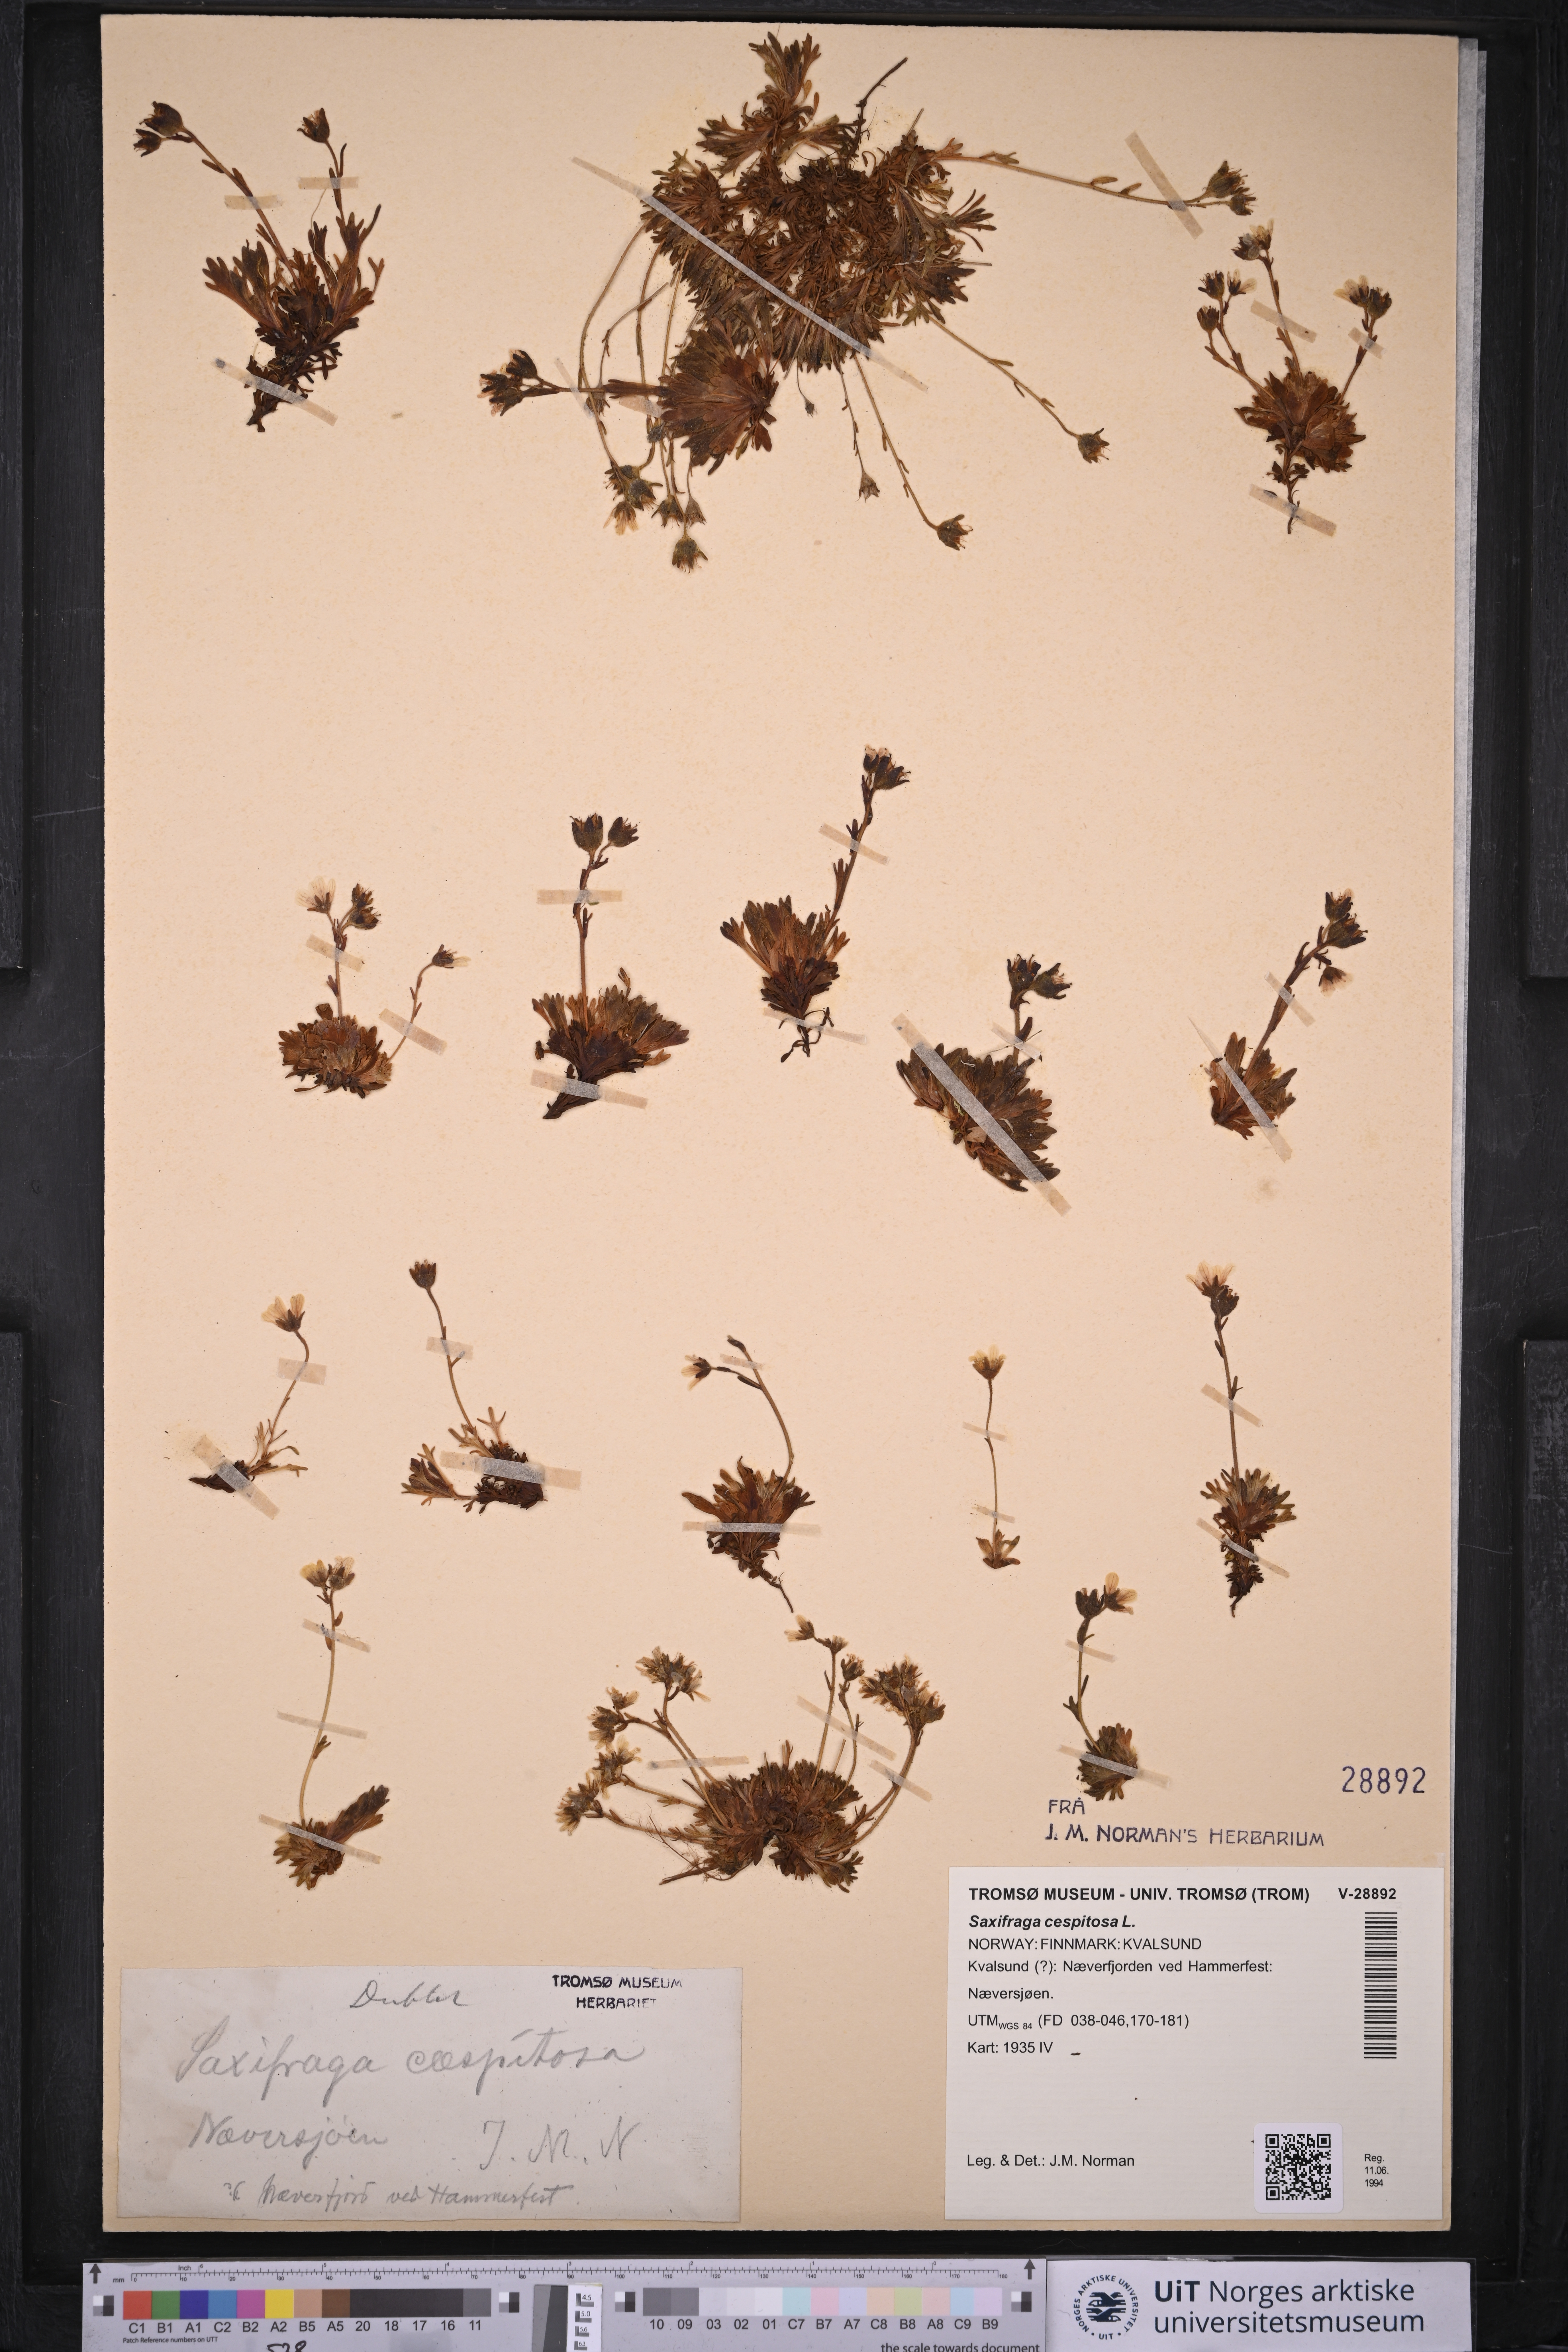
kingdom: Plantae
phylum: Tracheophyta
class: Magnoliopsida
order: Saxifragales
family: Saxifragaceae
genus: Saxifraga
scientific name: Saxifraga cespitosa
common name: Tufted saxifrage
